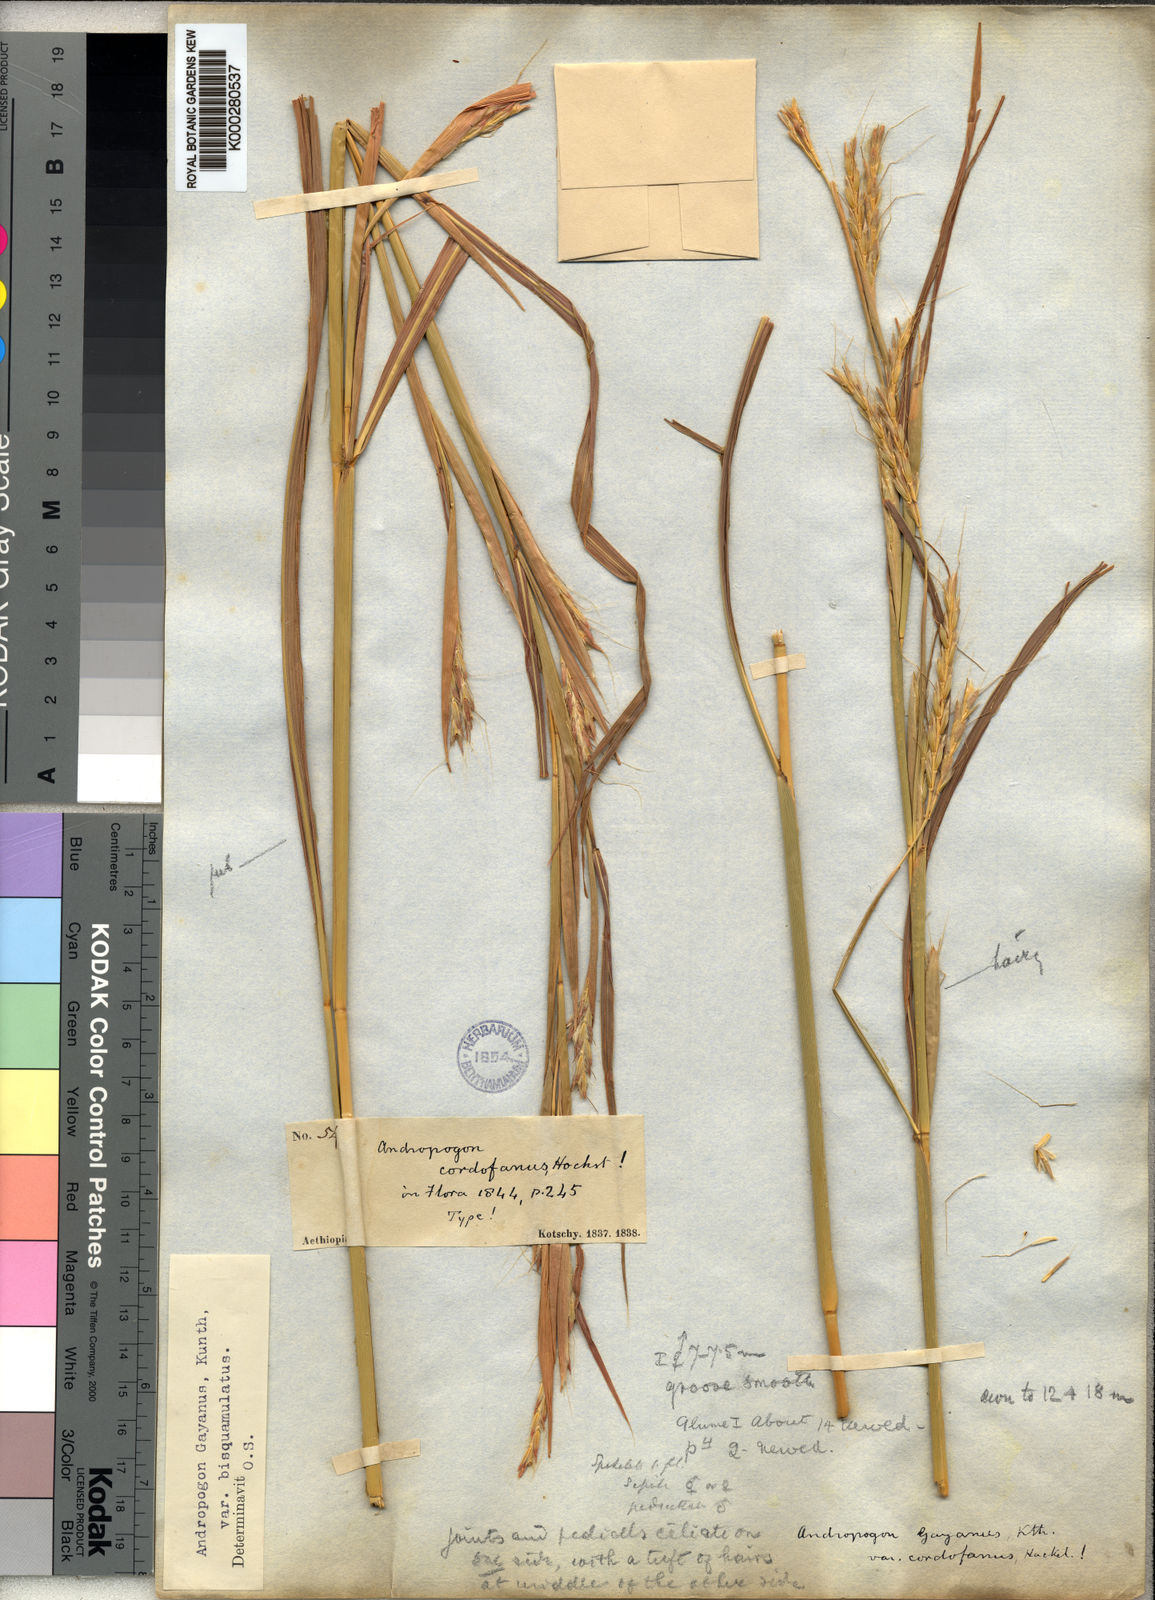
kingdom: Plantae
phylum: Tracheophyta
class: Liliopsida
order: Poales
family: Poaceae
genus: Andropogon
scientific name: Andropogon gayanus
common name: Tambuki grass
